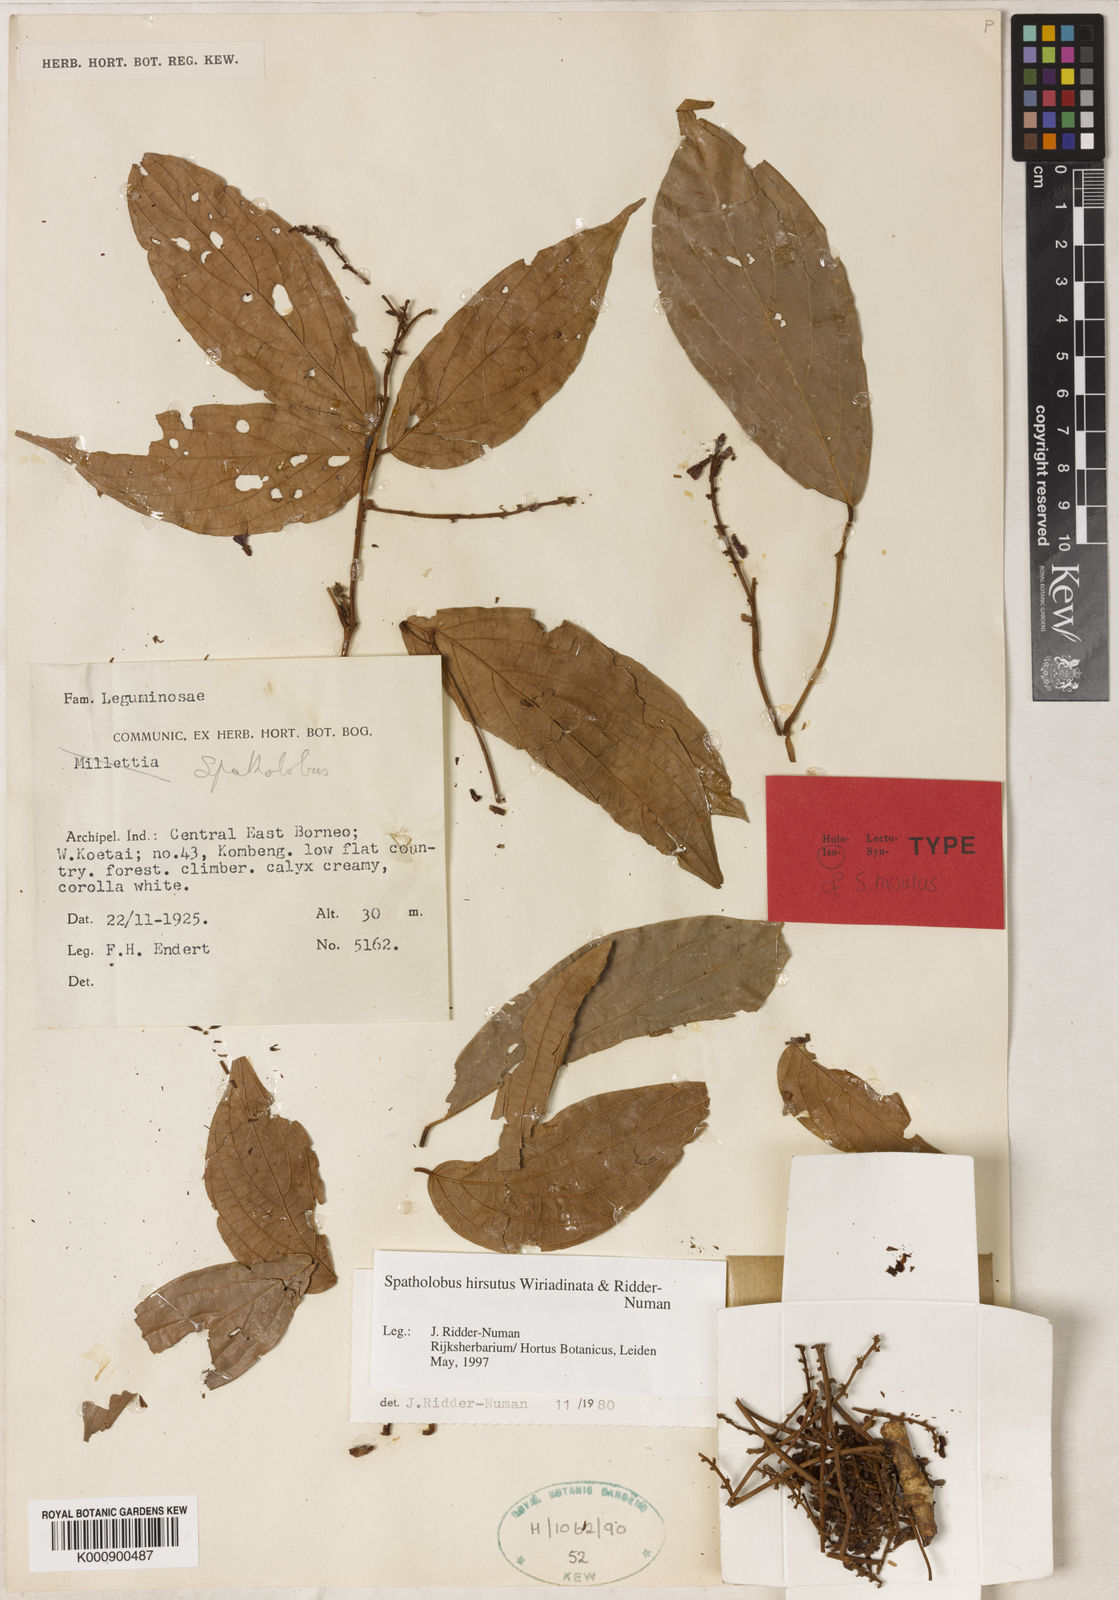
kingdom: Plantae
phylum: Tracheophyta
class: Magnoliopsida
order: Fabales
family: Fabaceae
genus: Spatholobus
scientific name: Spatholobus hirsutus
